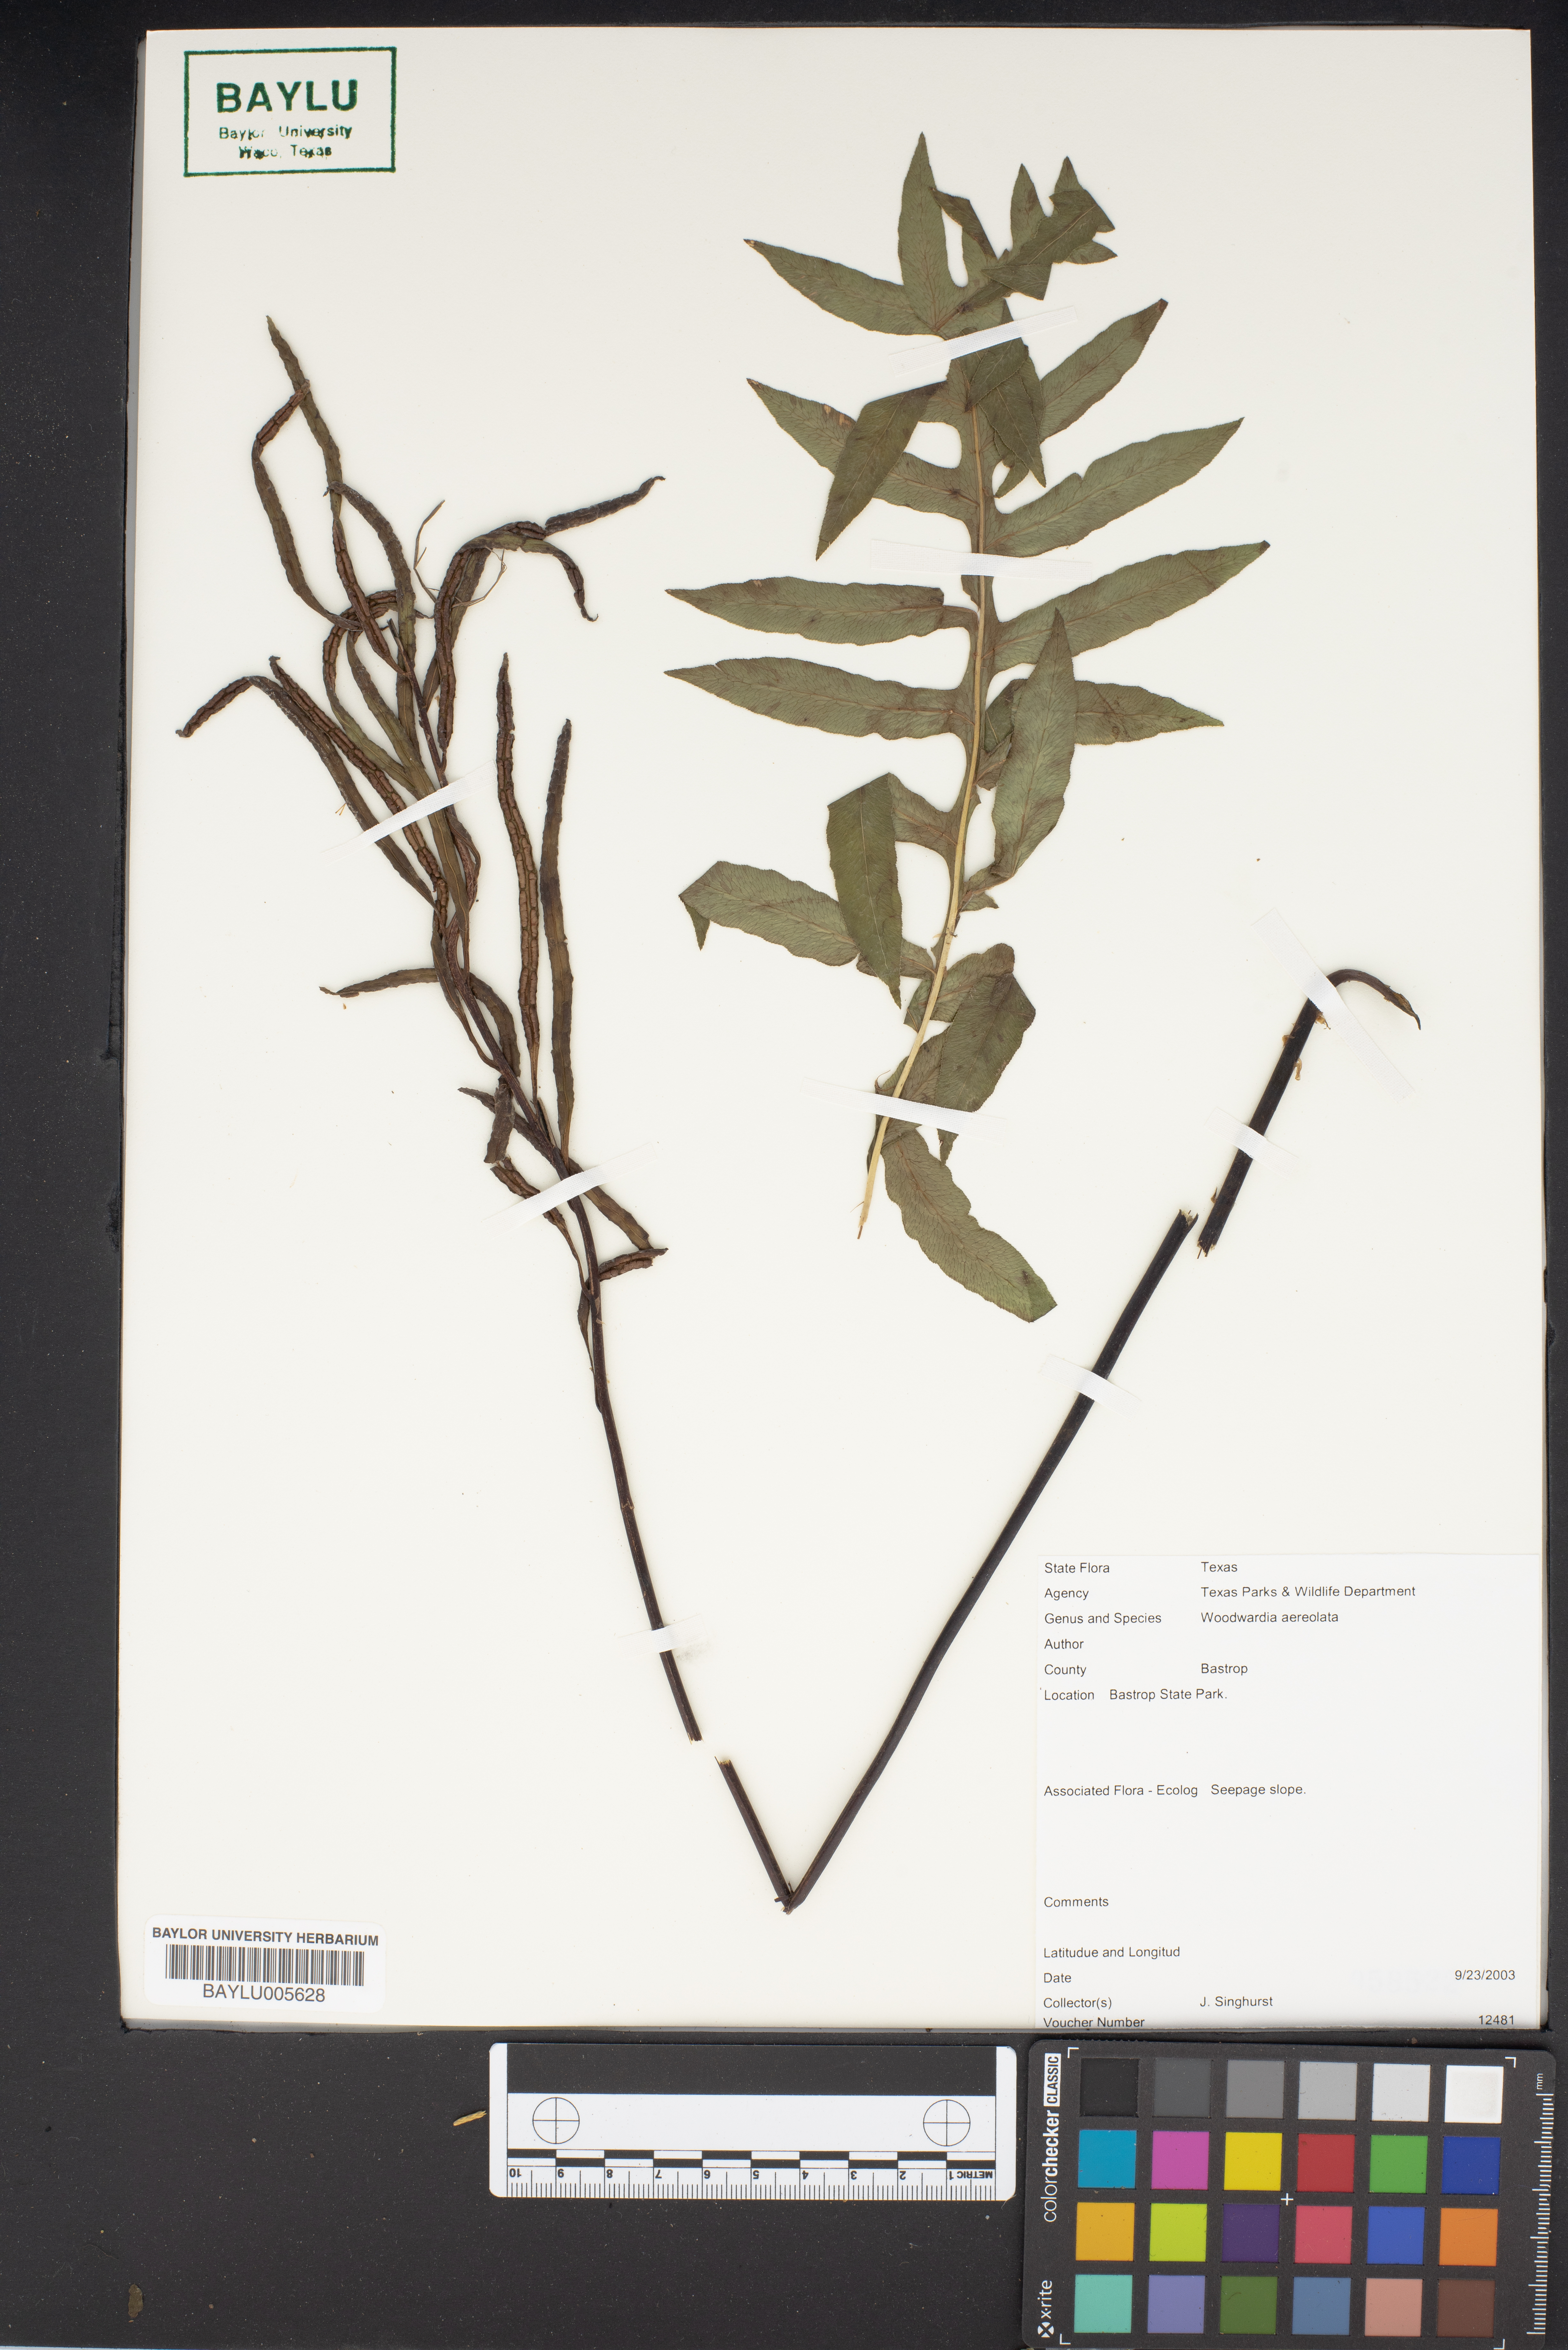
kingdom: Plantae
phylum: Tracheophyta
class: Polypodiopsida
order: Polypodiales
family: Blechnaceae
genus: Lorinseria
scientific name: Lorinseria areolata
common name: Dwarf chain fern
